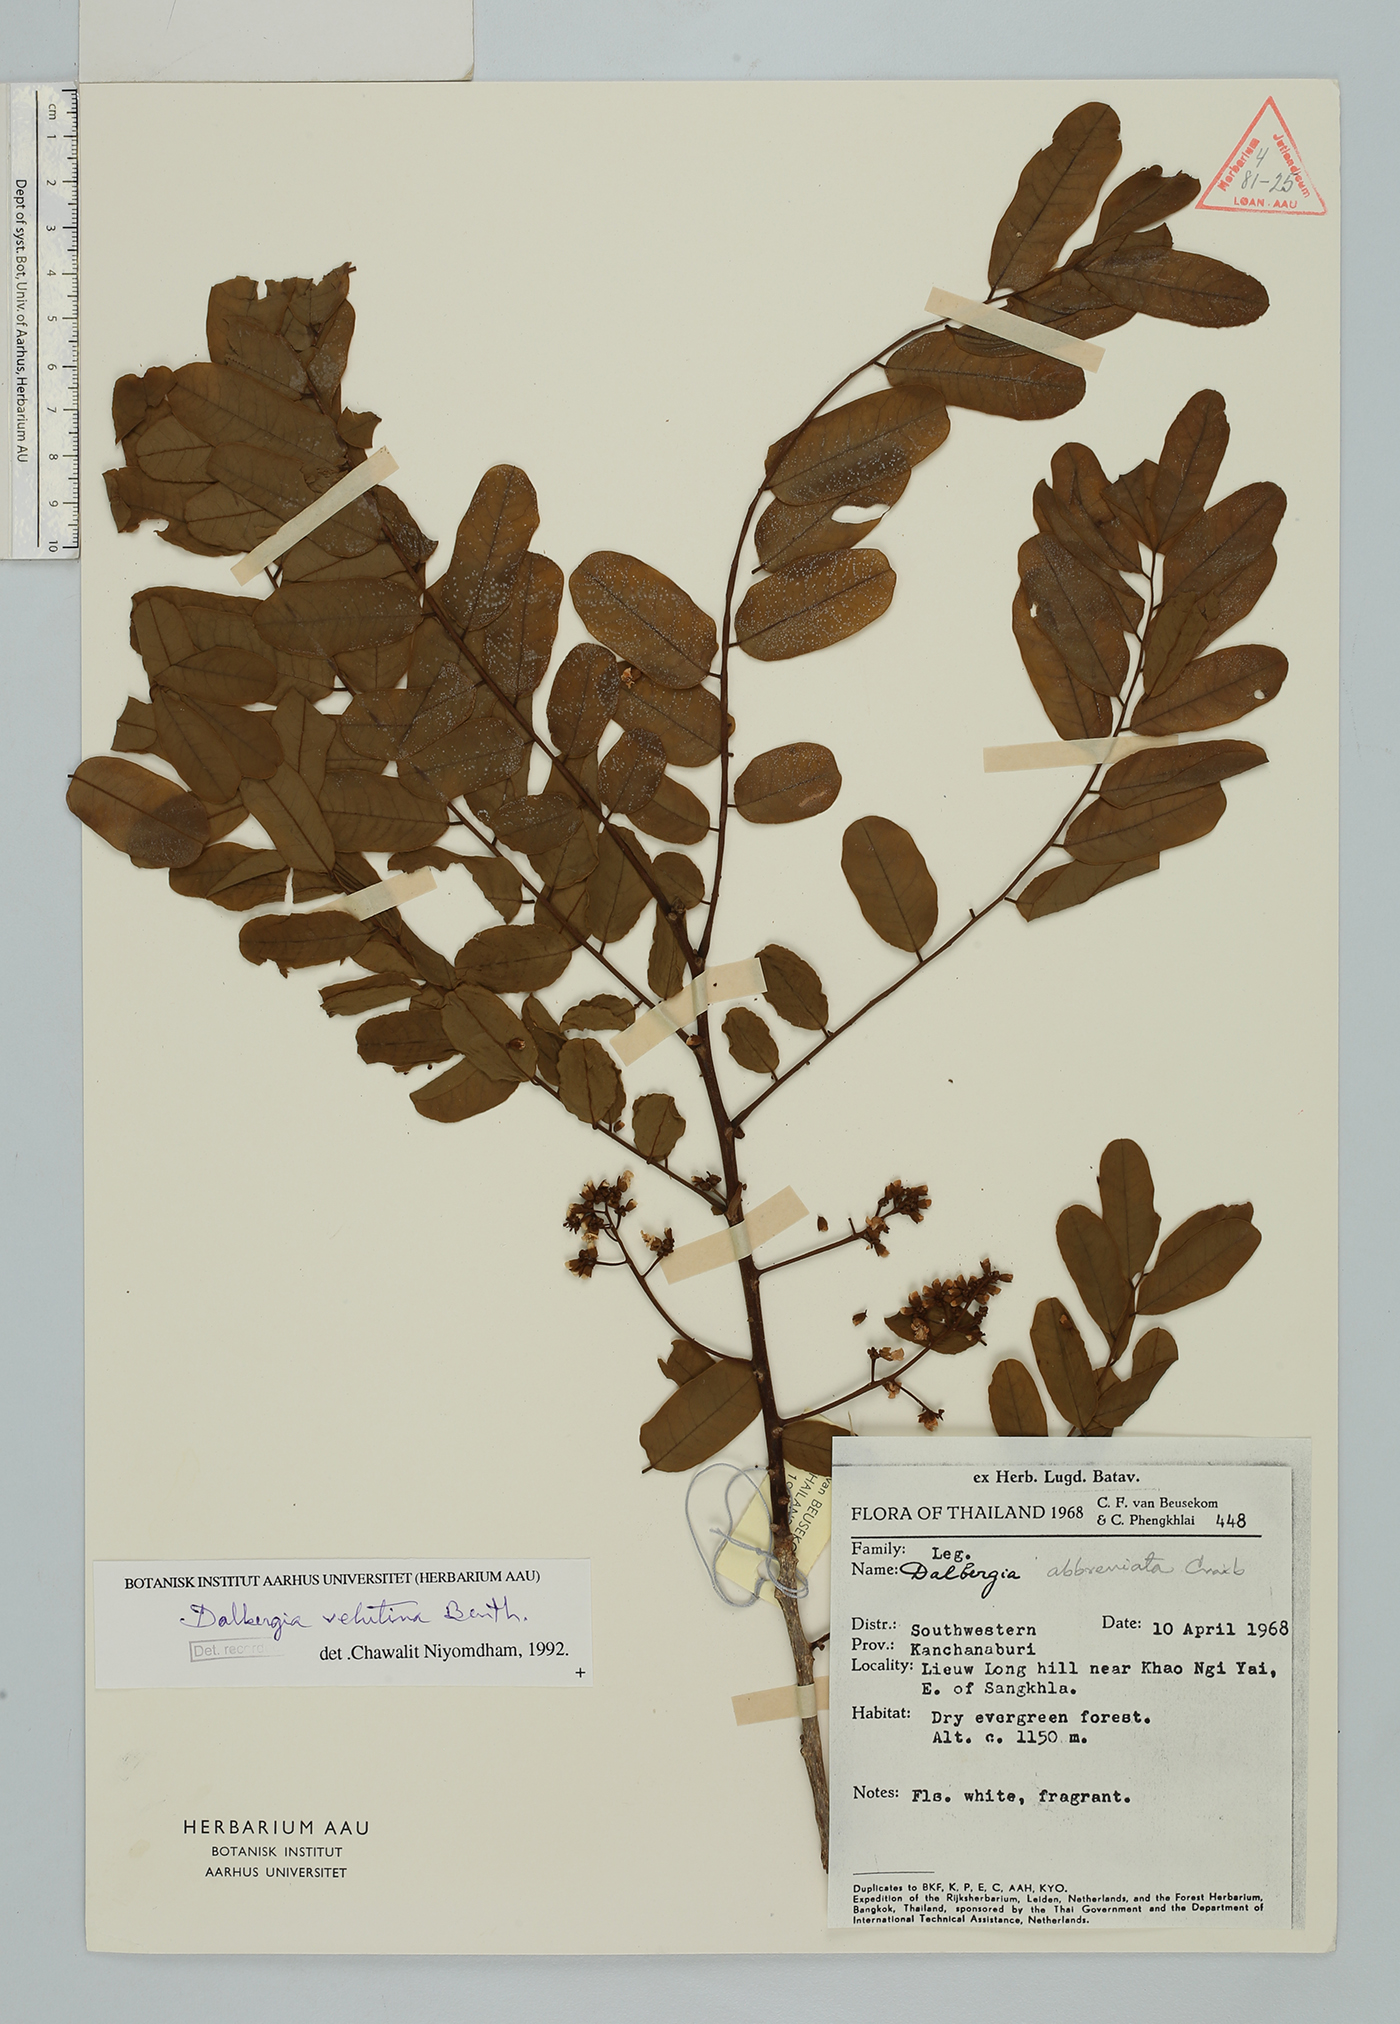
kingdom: Plantae
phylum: Tracheophyta
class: Magnoliopsida
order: Fabales
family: Fabaceae
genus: Dalbergia
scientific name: Dalbergia velutina
